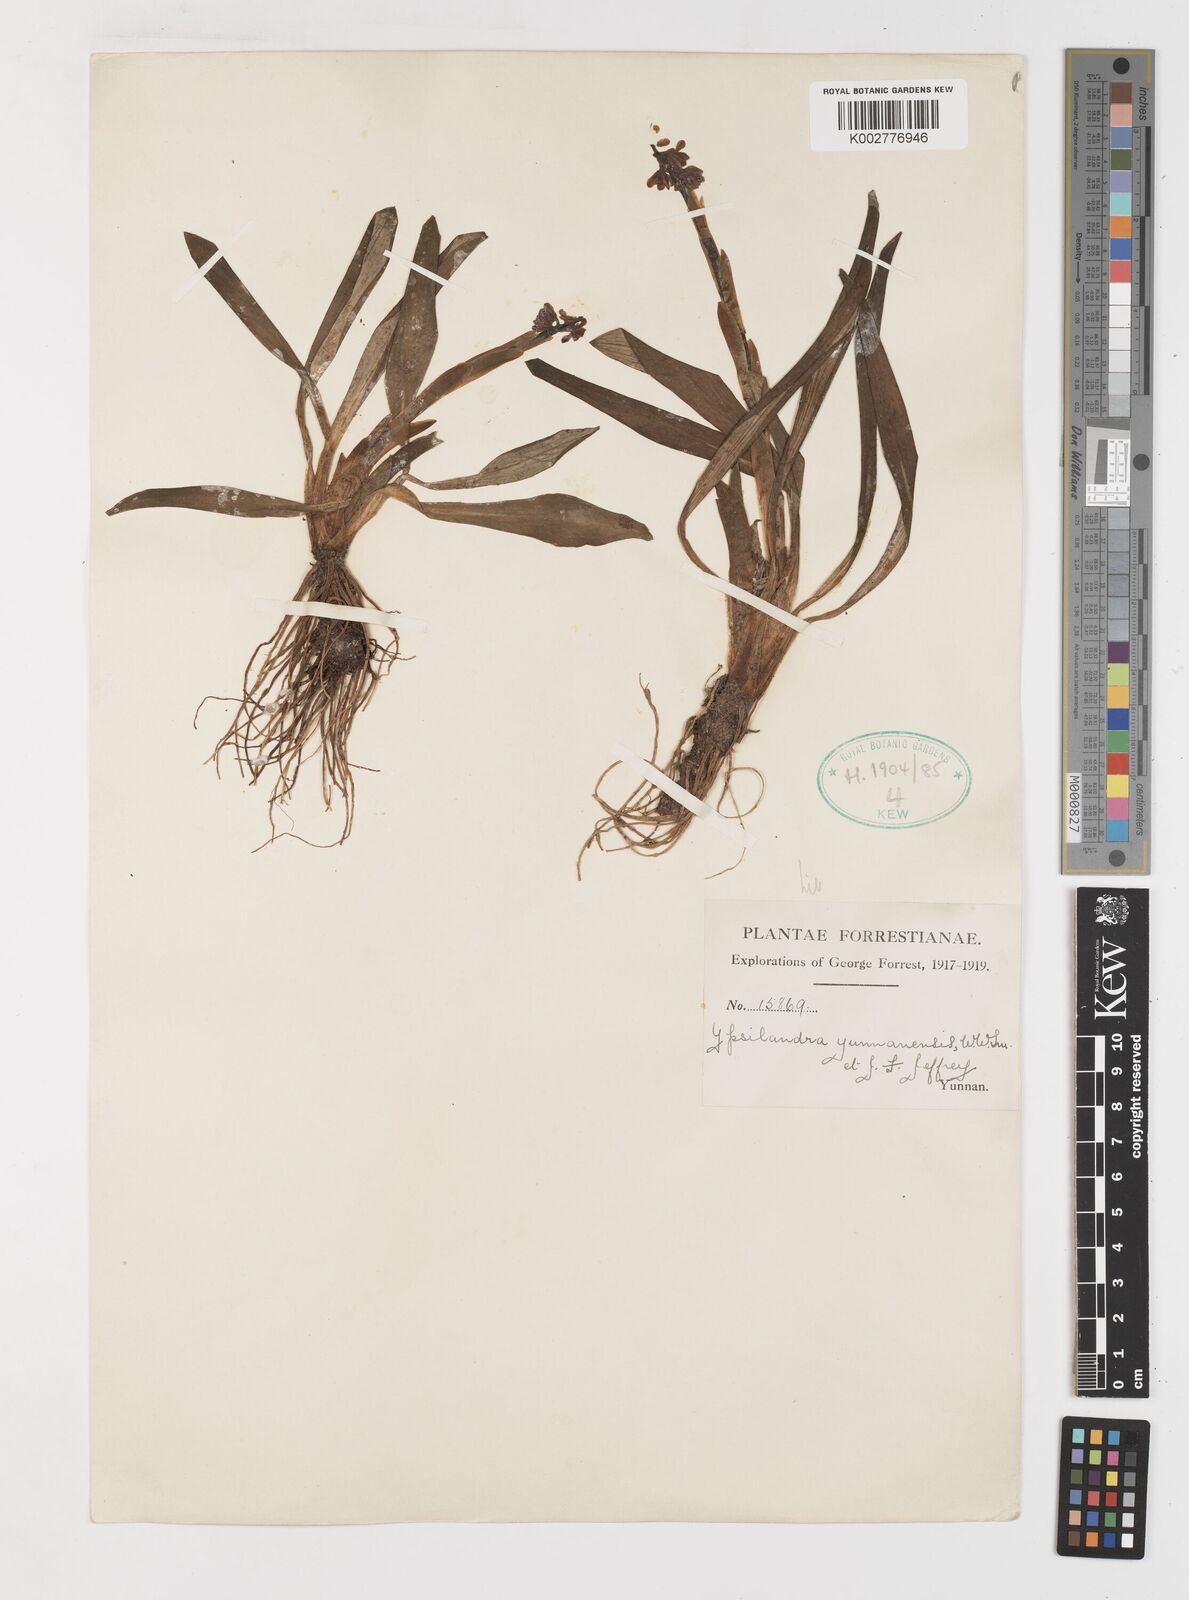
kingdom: Plantae
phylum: Tracheophyta
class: Liliopsida
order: Liliales
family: Melanthiaceae
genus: Helonias
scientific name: Helonias yunnanensis
